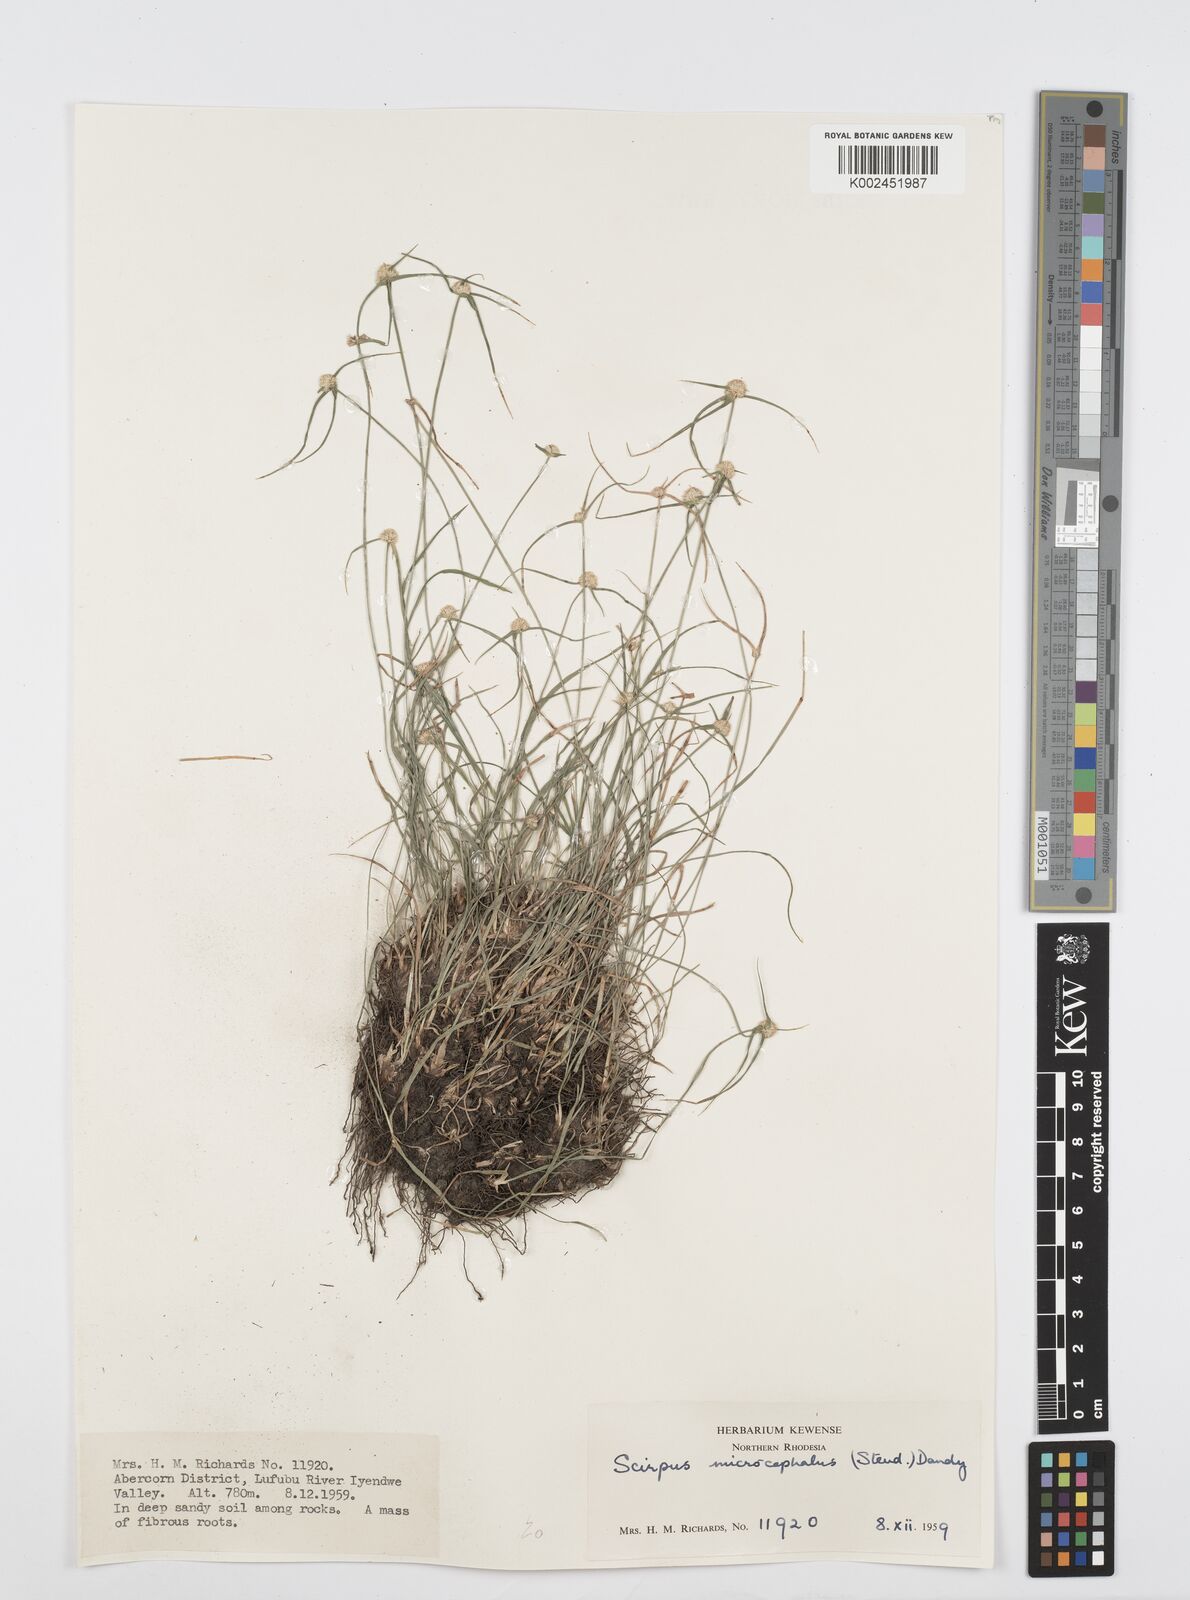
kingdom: Plantae
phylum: Tracheophyta
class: Liliopsida
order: Poales
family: Cyperaceae
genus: Cyperus
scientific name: Cyperus microcephalus
